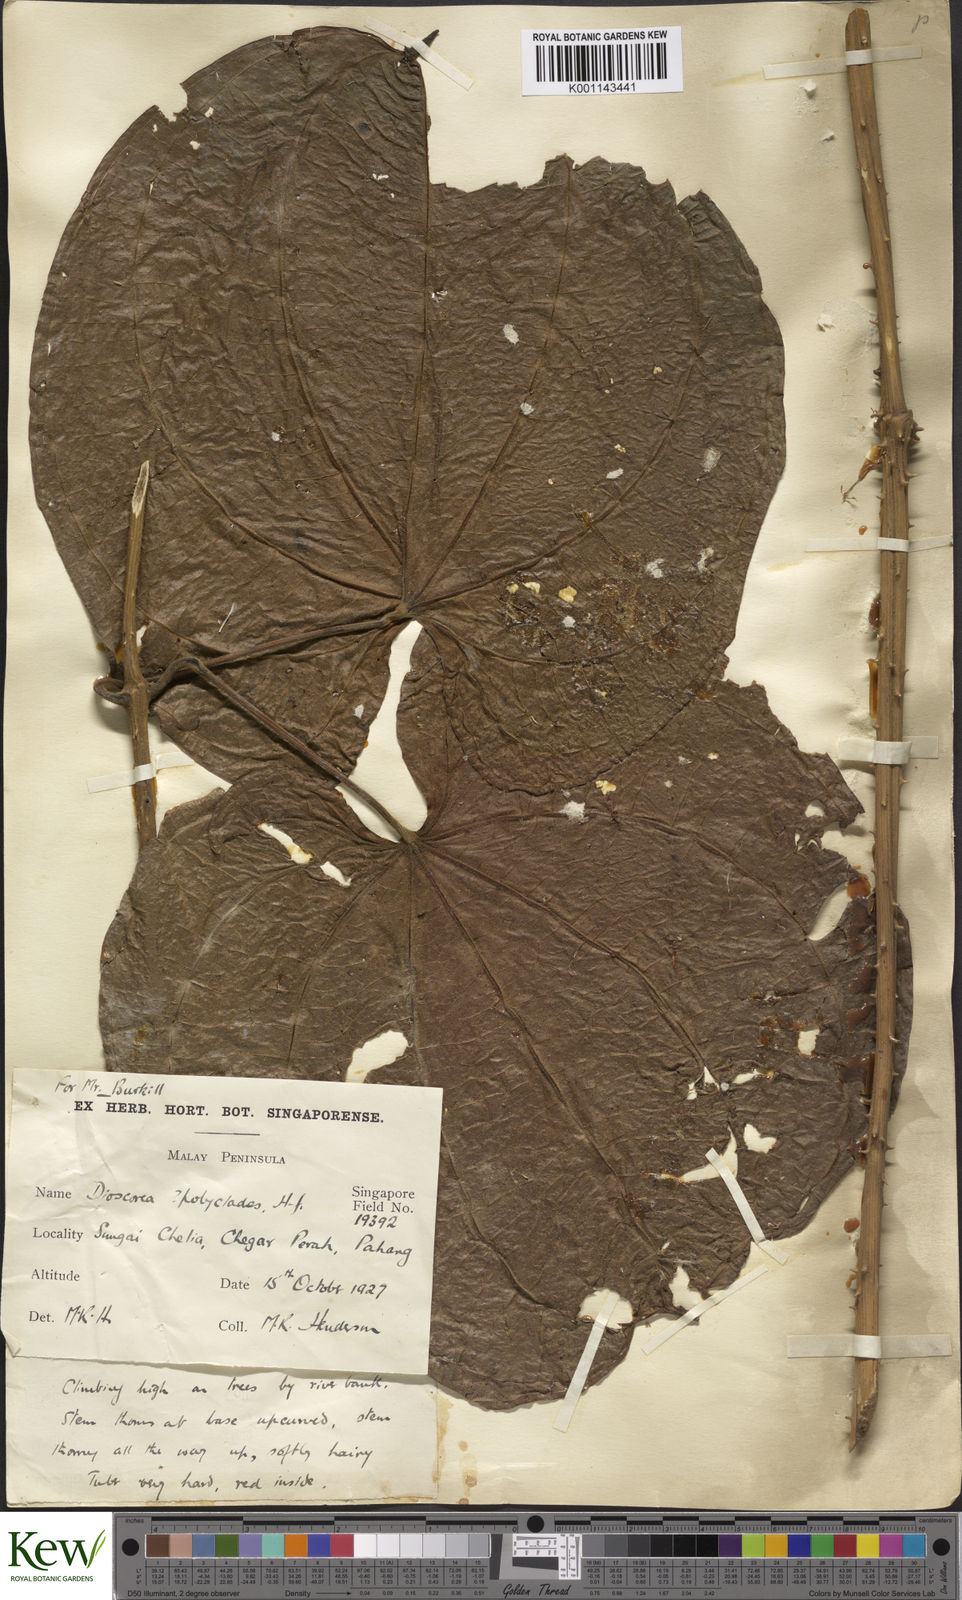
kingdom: Plantae
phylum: Tracheophyta
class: Liliopsida
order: Dioscoreales
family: Dioscoreaceae
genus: Dioscorea
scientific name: Dioscorea polyclados
